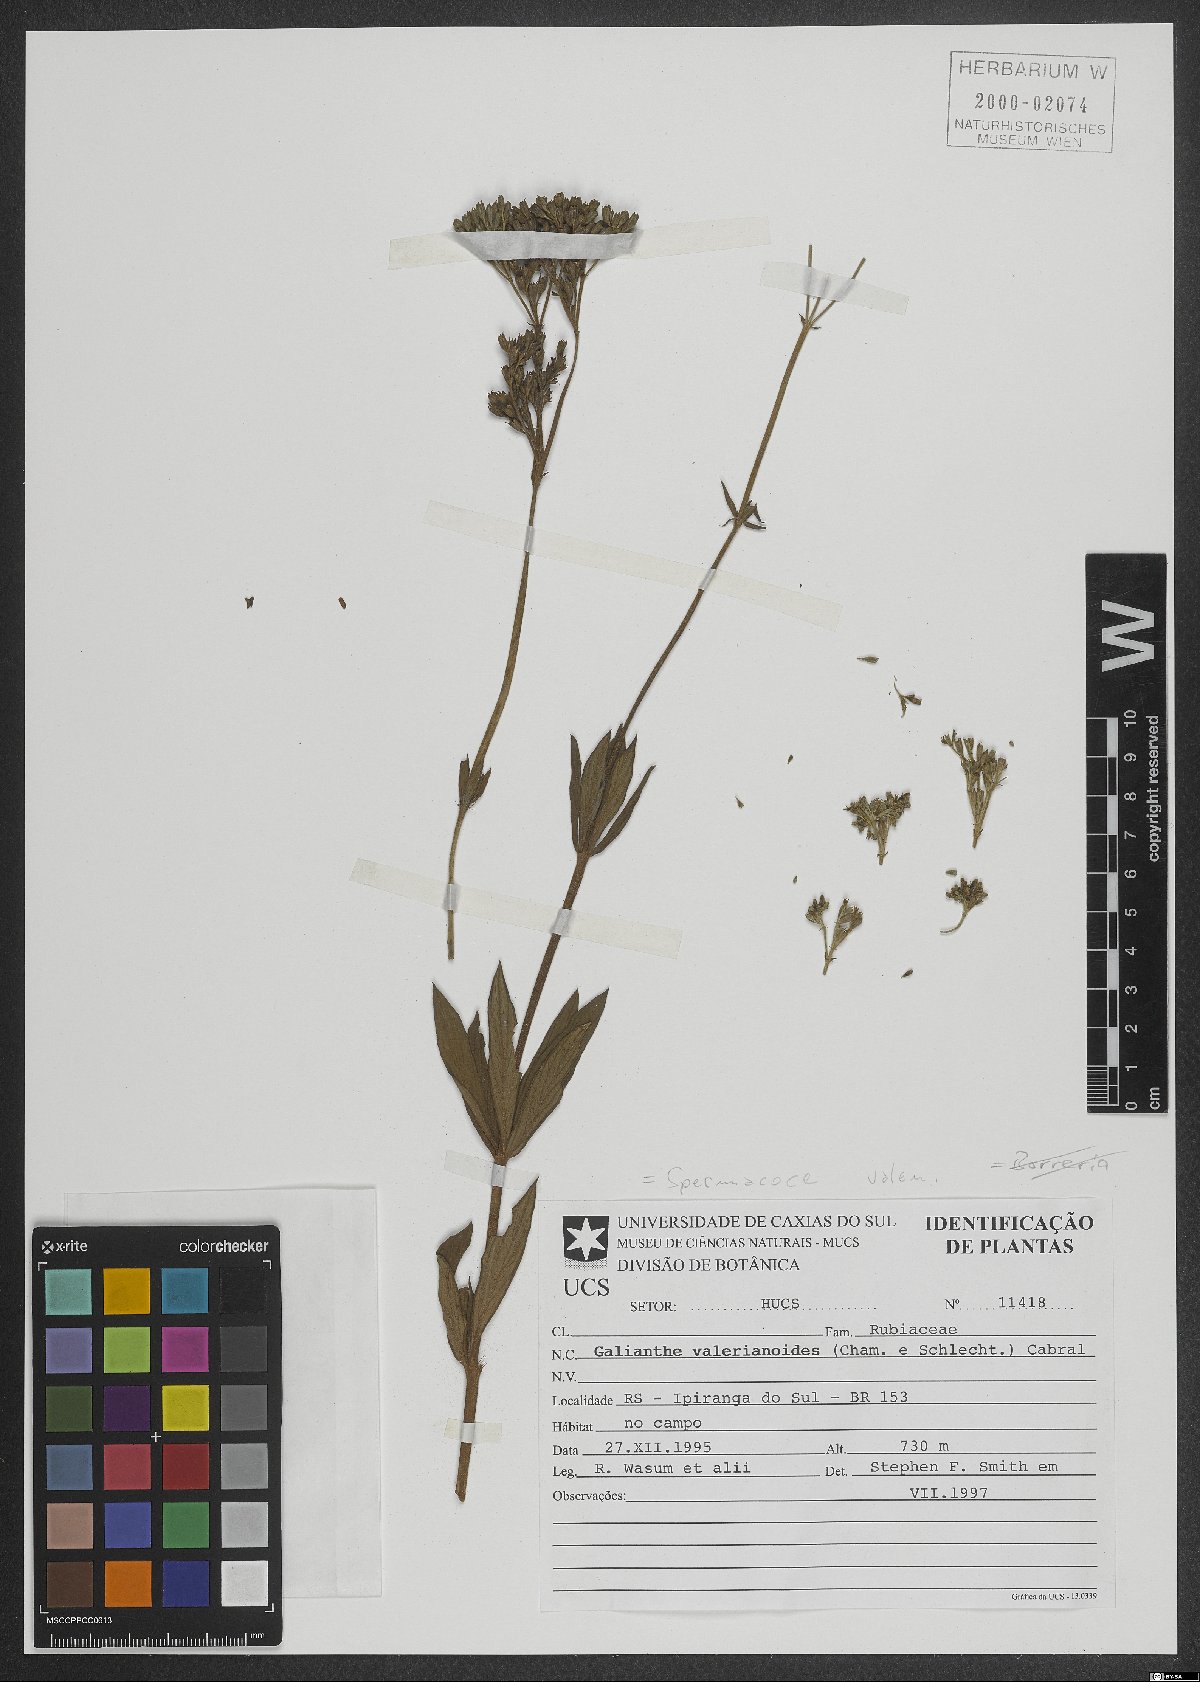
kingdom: Plantae
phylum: Tracheophyta
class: Magnoliopsida
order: Gentianales
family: Rubiaceae
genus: Galianthe
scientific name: Galianthe valerianoides
